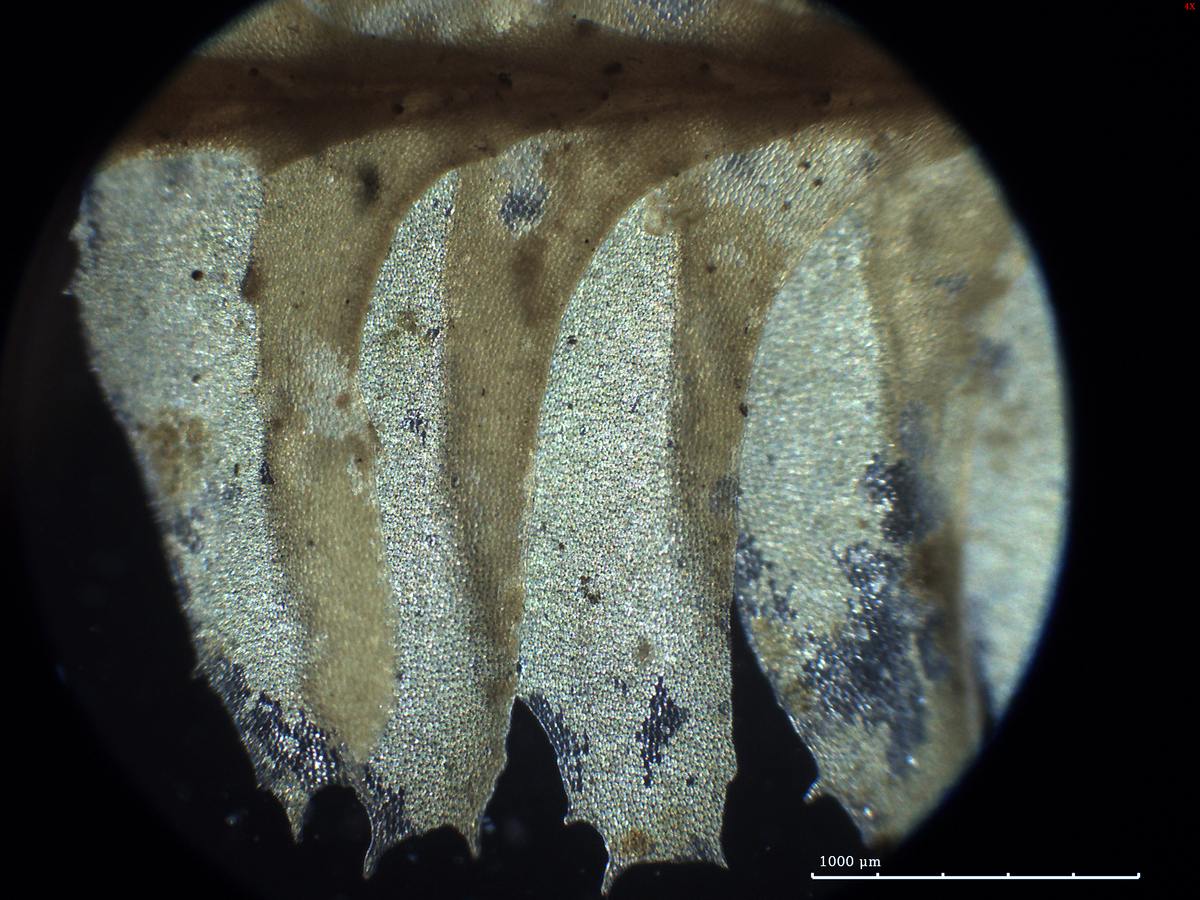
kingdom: Plantae
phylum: Marchantiophyta
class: Jungermanniopsida
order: Jungermanniales
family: Plagiochilaceae
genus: Plagiochila
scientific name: Plagiochila repanda
